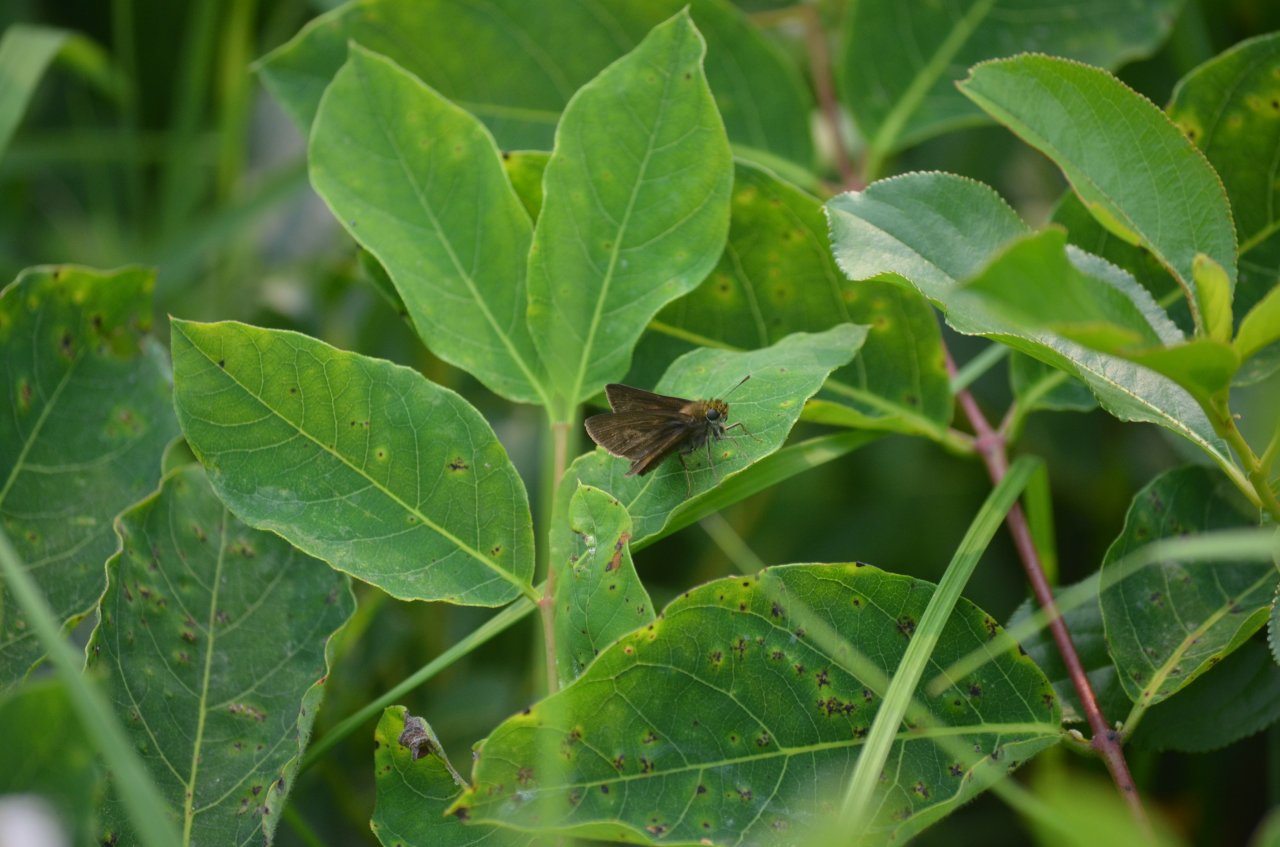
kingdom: Animalia
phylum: Arthropoda
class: Insecta
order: Lepidoptera
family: Hesperiidae
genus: Euphyes
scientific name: Euphyes vestris
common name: Dun Skipper
